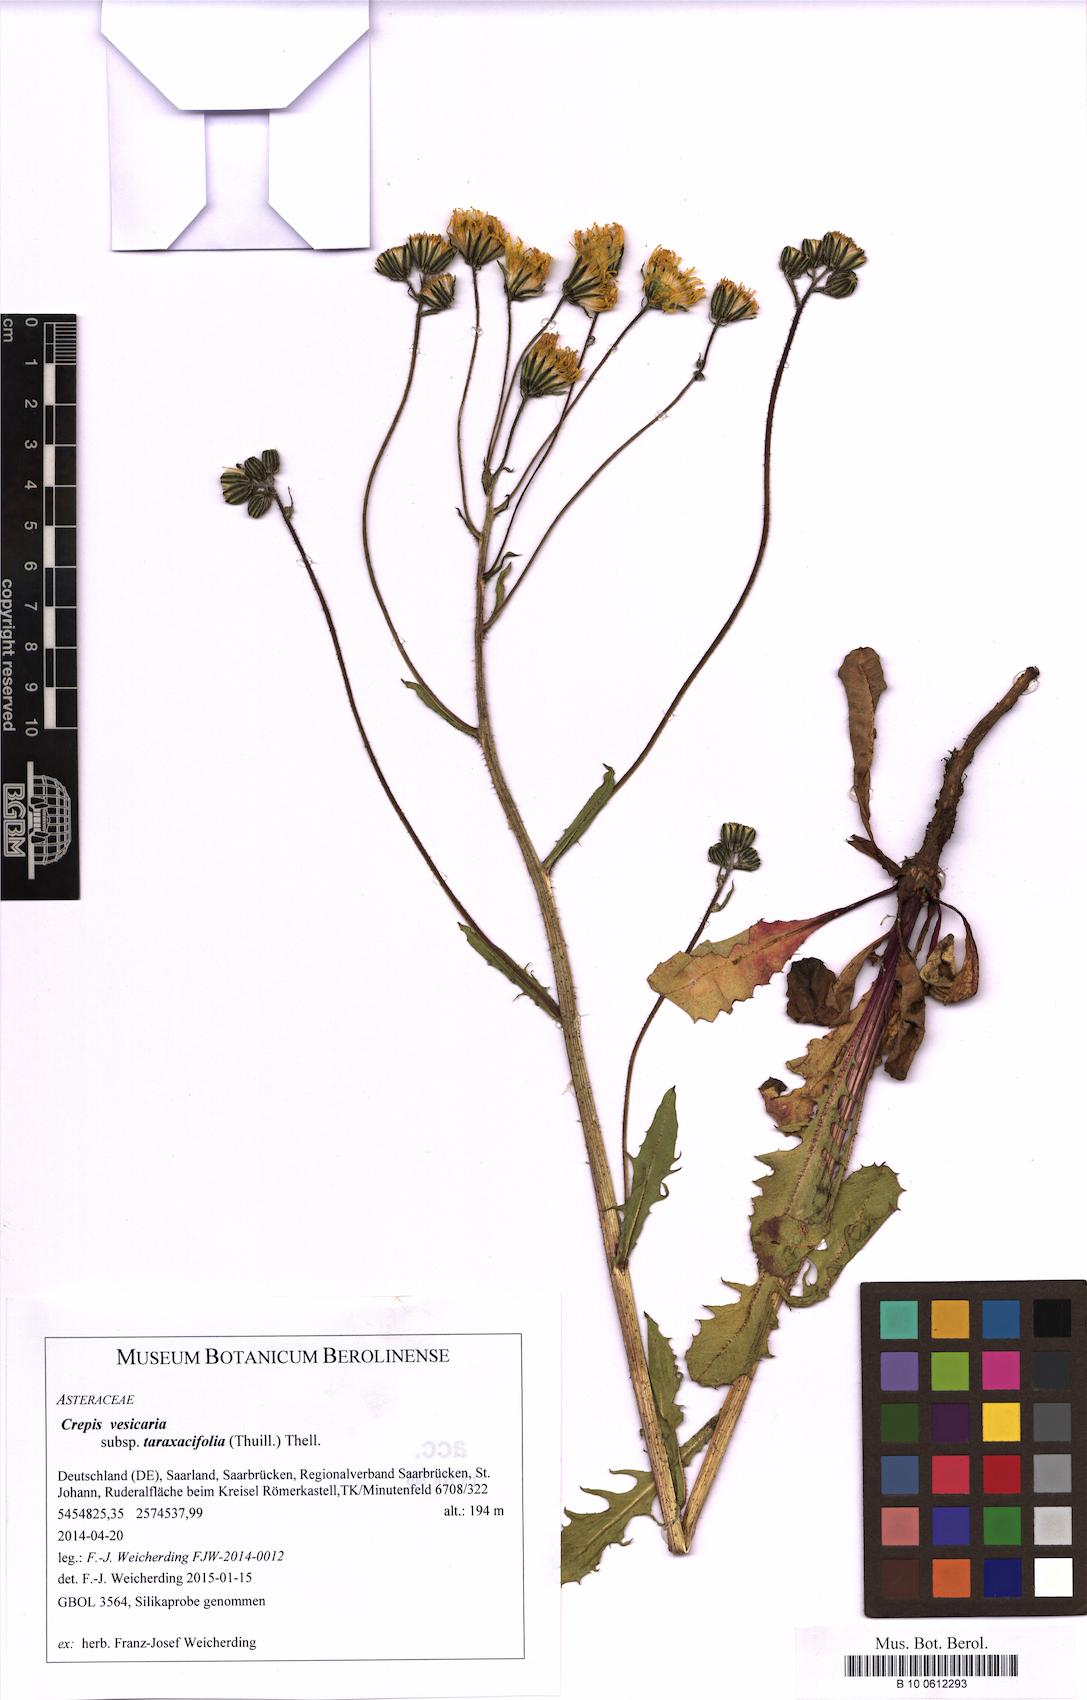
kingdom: Plantae
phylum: Tracheophyta
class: Magnoliopsida
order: Asterales
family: Asteraceae
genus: Crepis
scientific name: Crepis vesicaria
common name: Beaked hawksbeard
